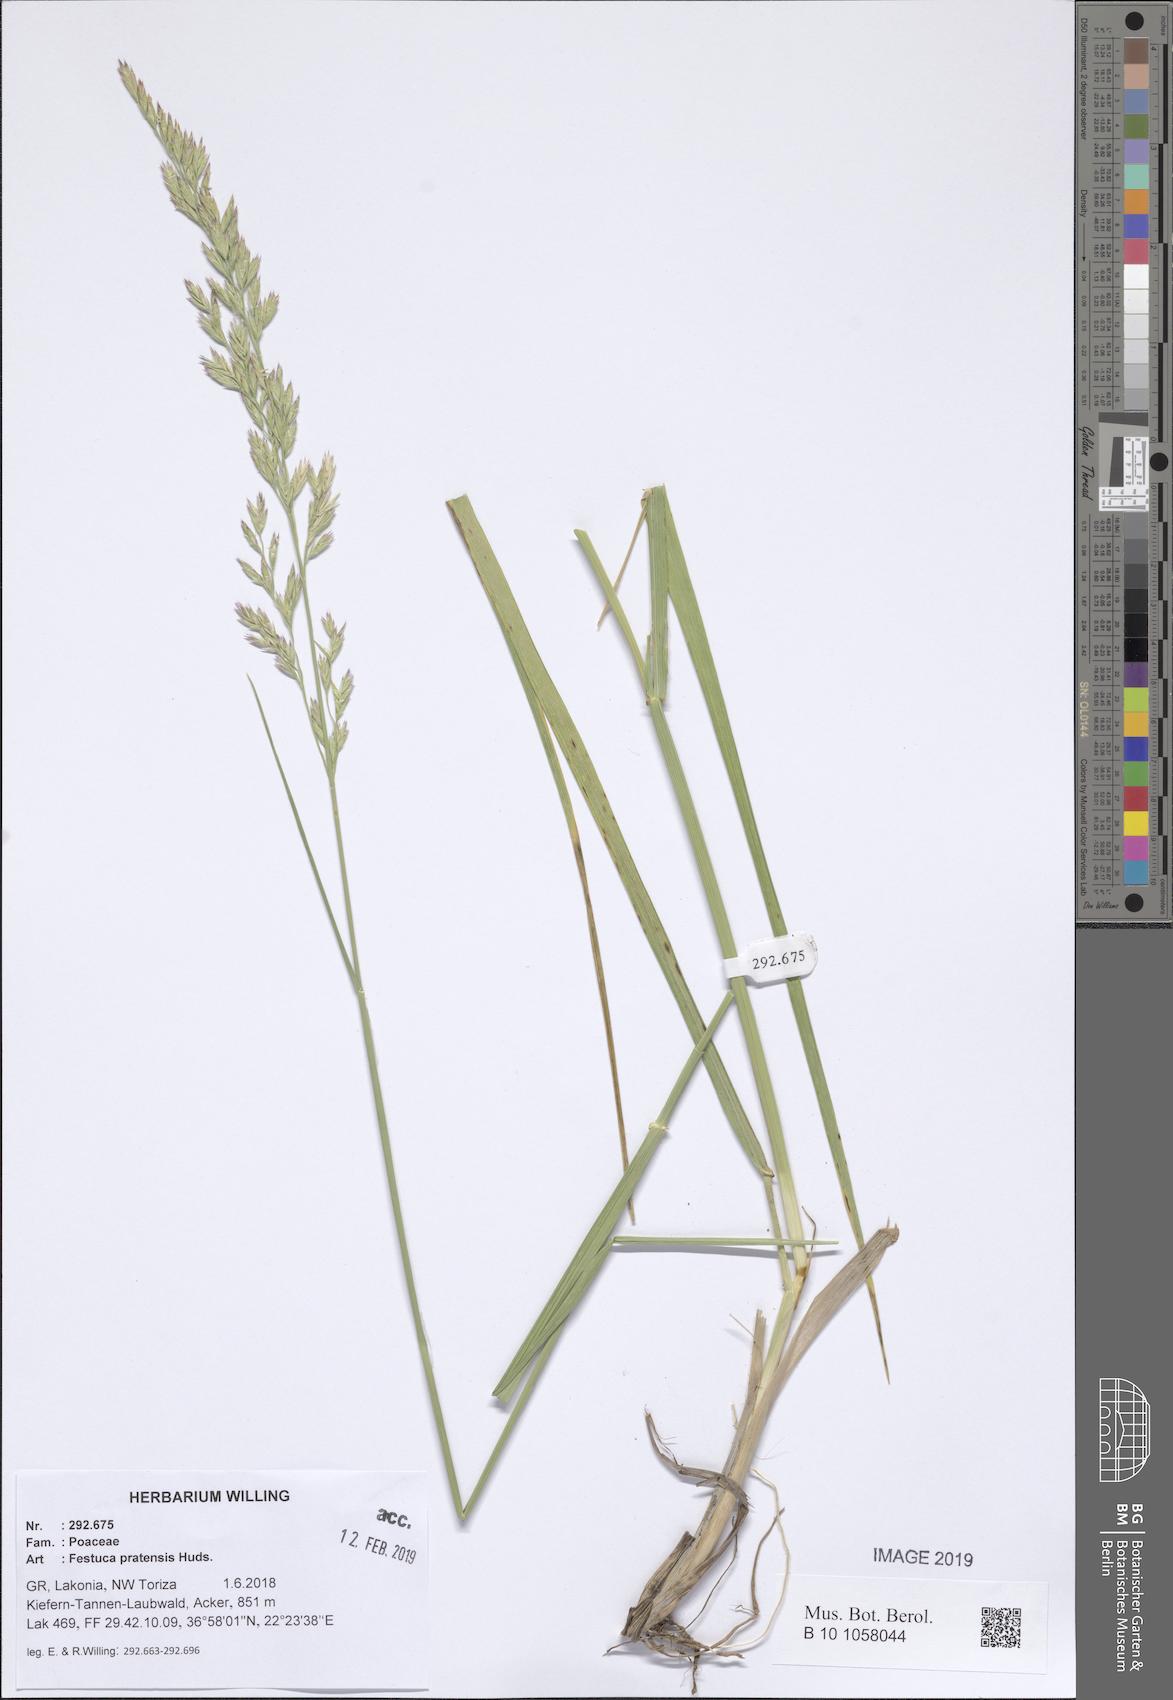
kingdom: Plantae
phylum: Tracheophyta
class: Liliopsida
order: Poales
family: Poaceae
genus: Lolium
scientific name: Lolium pratense
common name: Dover grass
